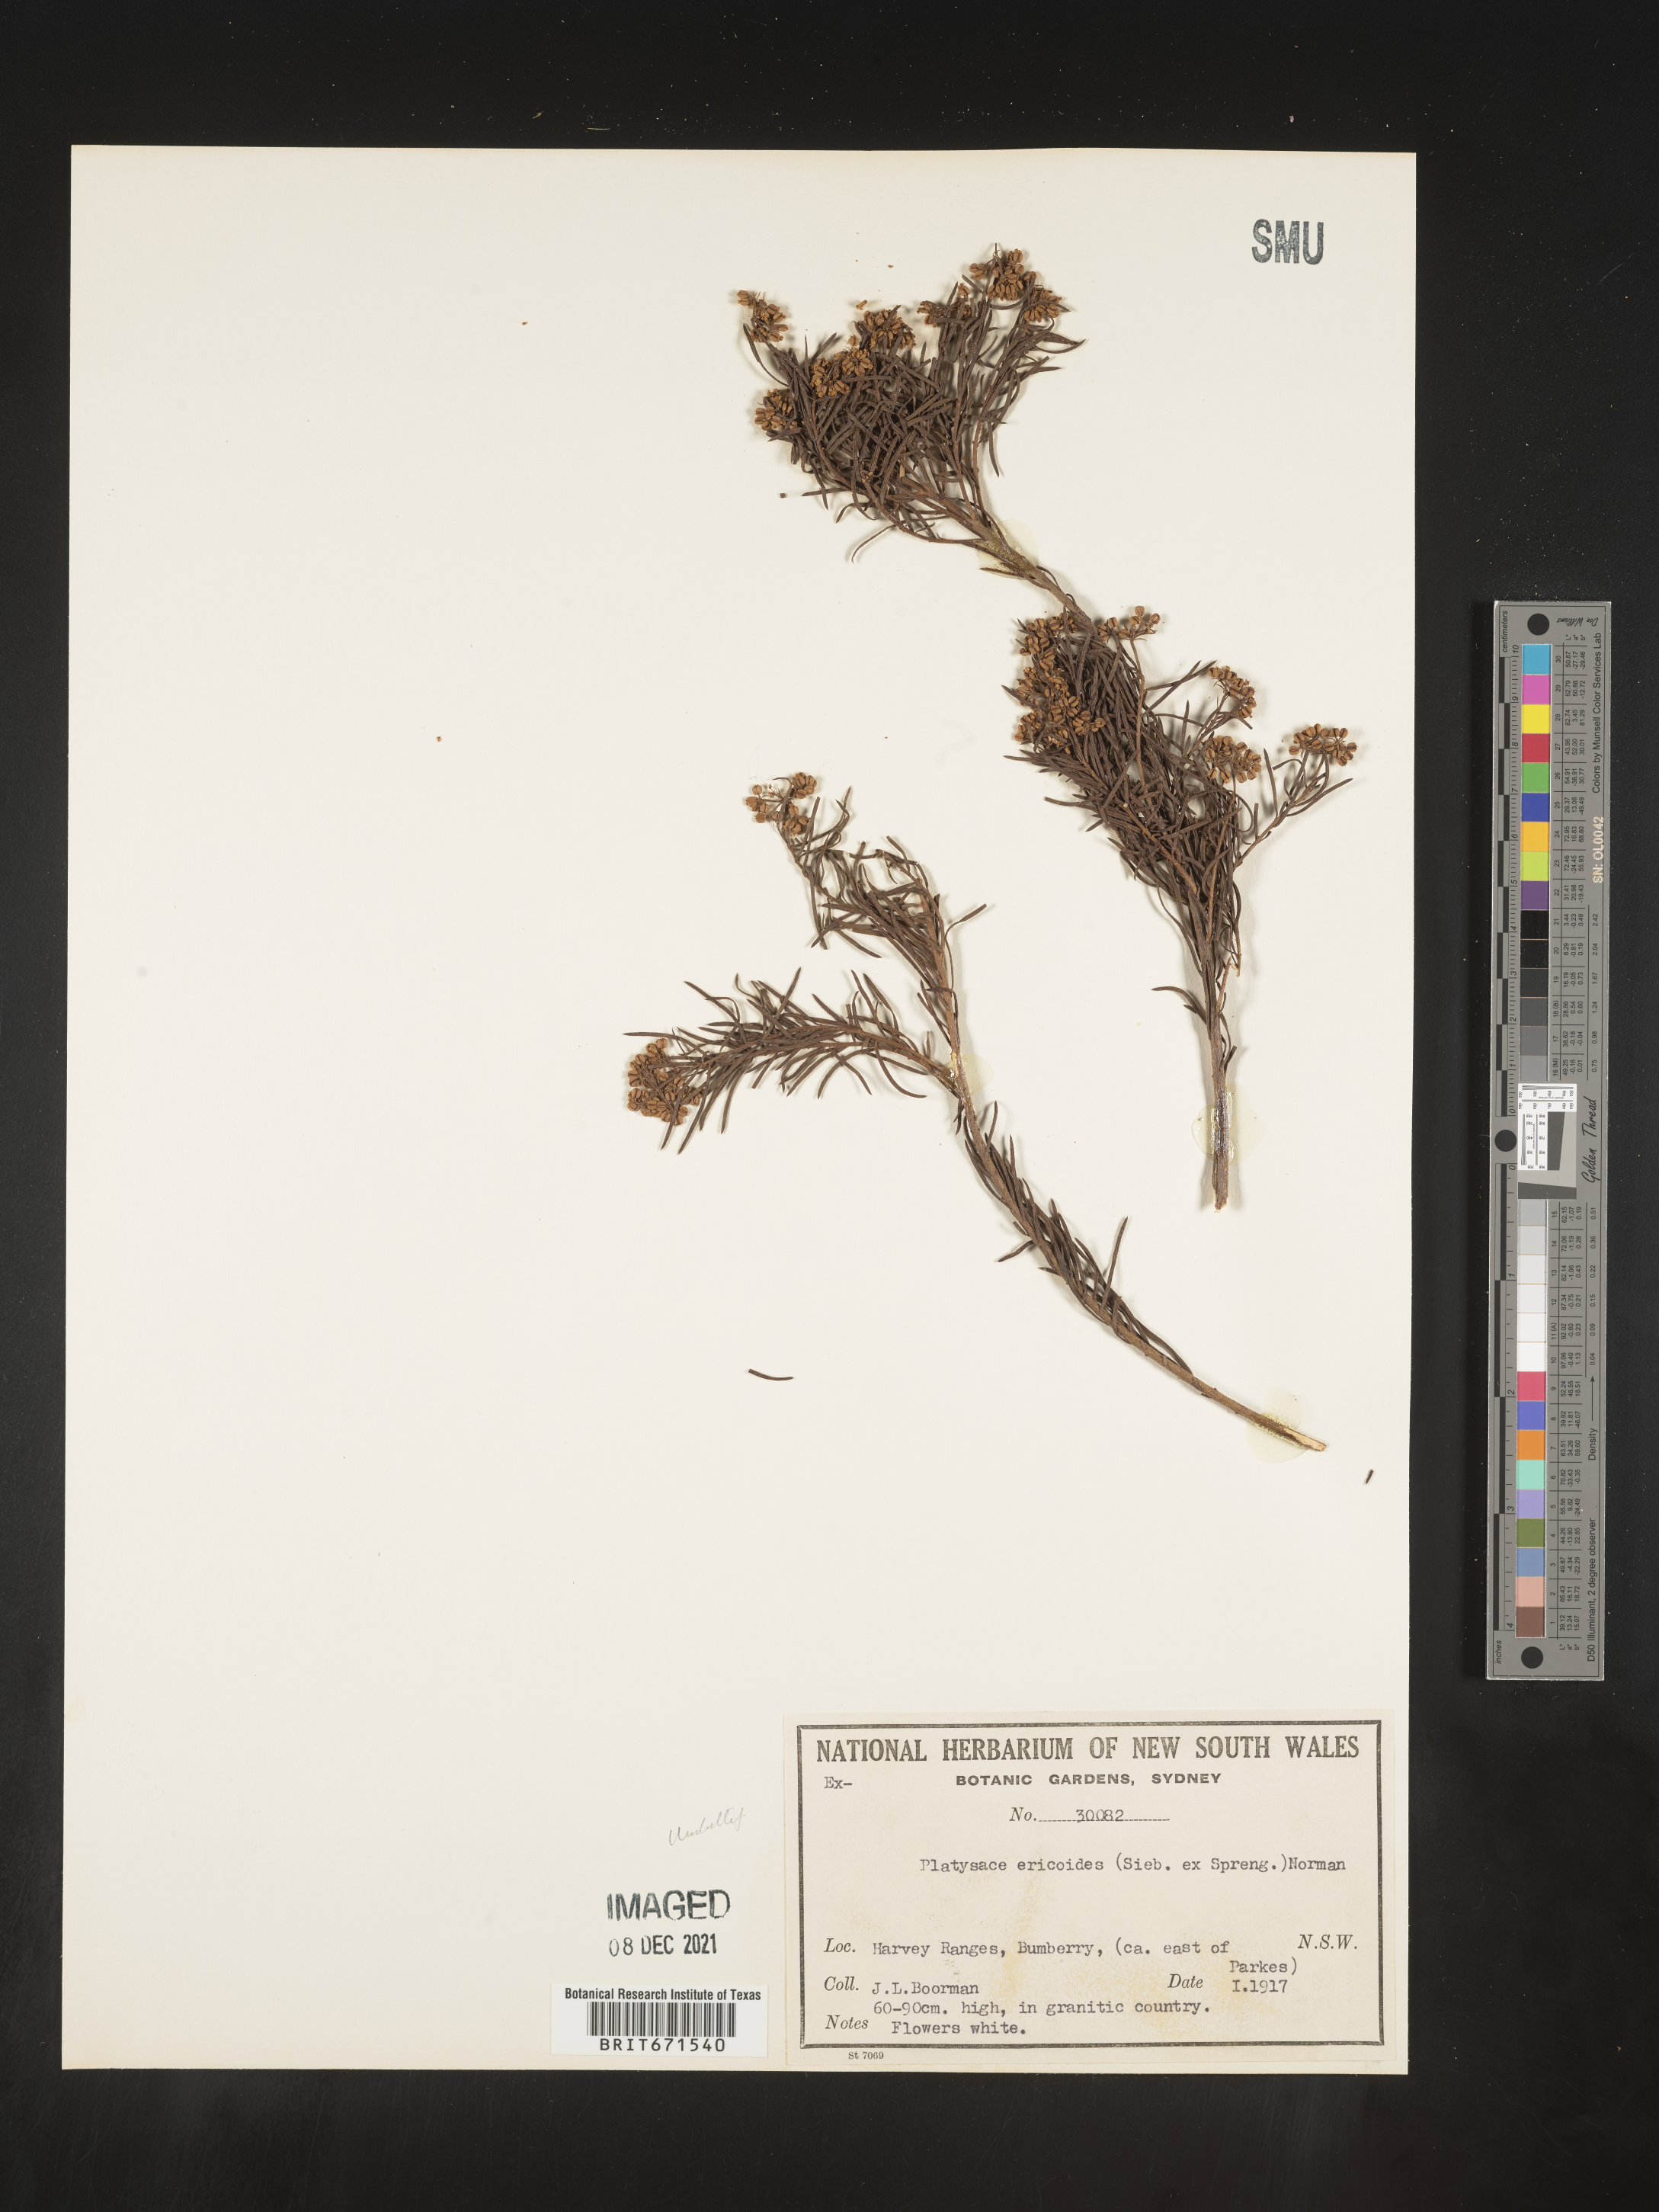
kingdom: Plantae
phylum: Tracheophyta
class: Magnoliopsida
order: Apiales
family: Apiaceae
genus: Platysace
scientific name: Platysace
